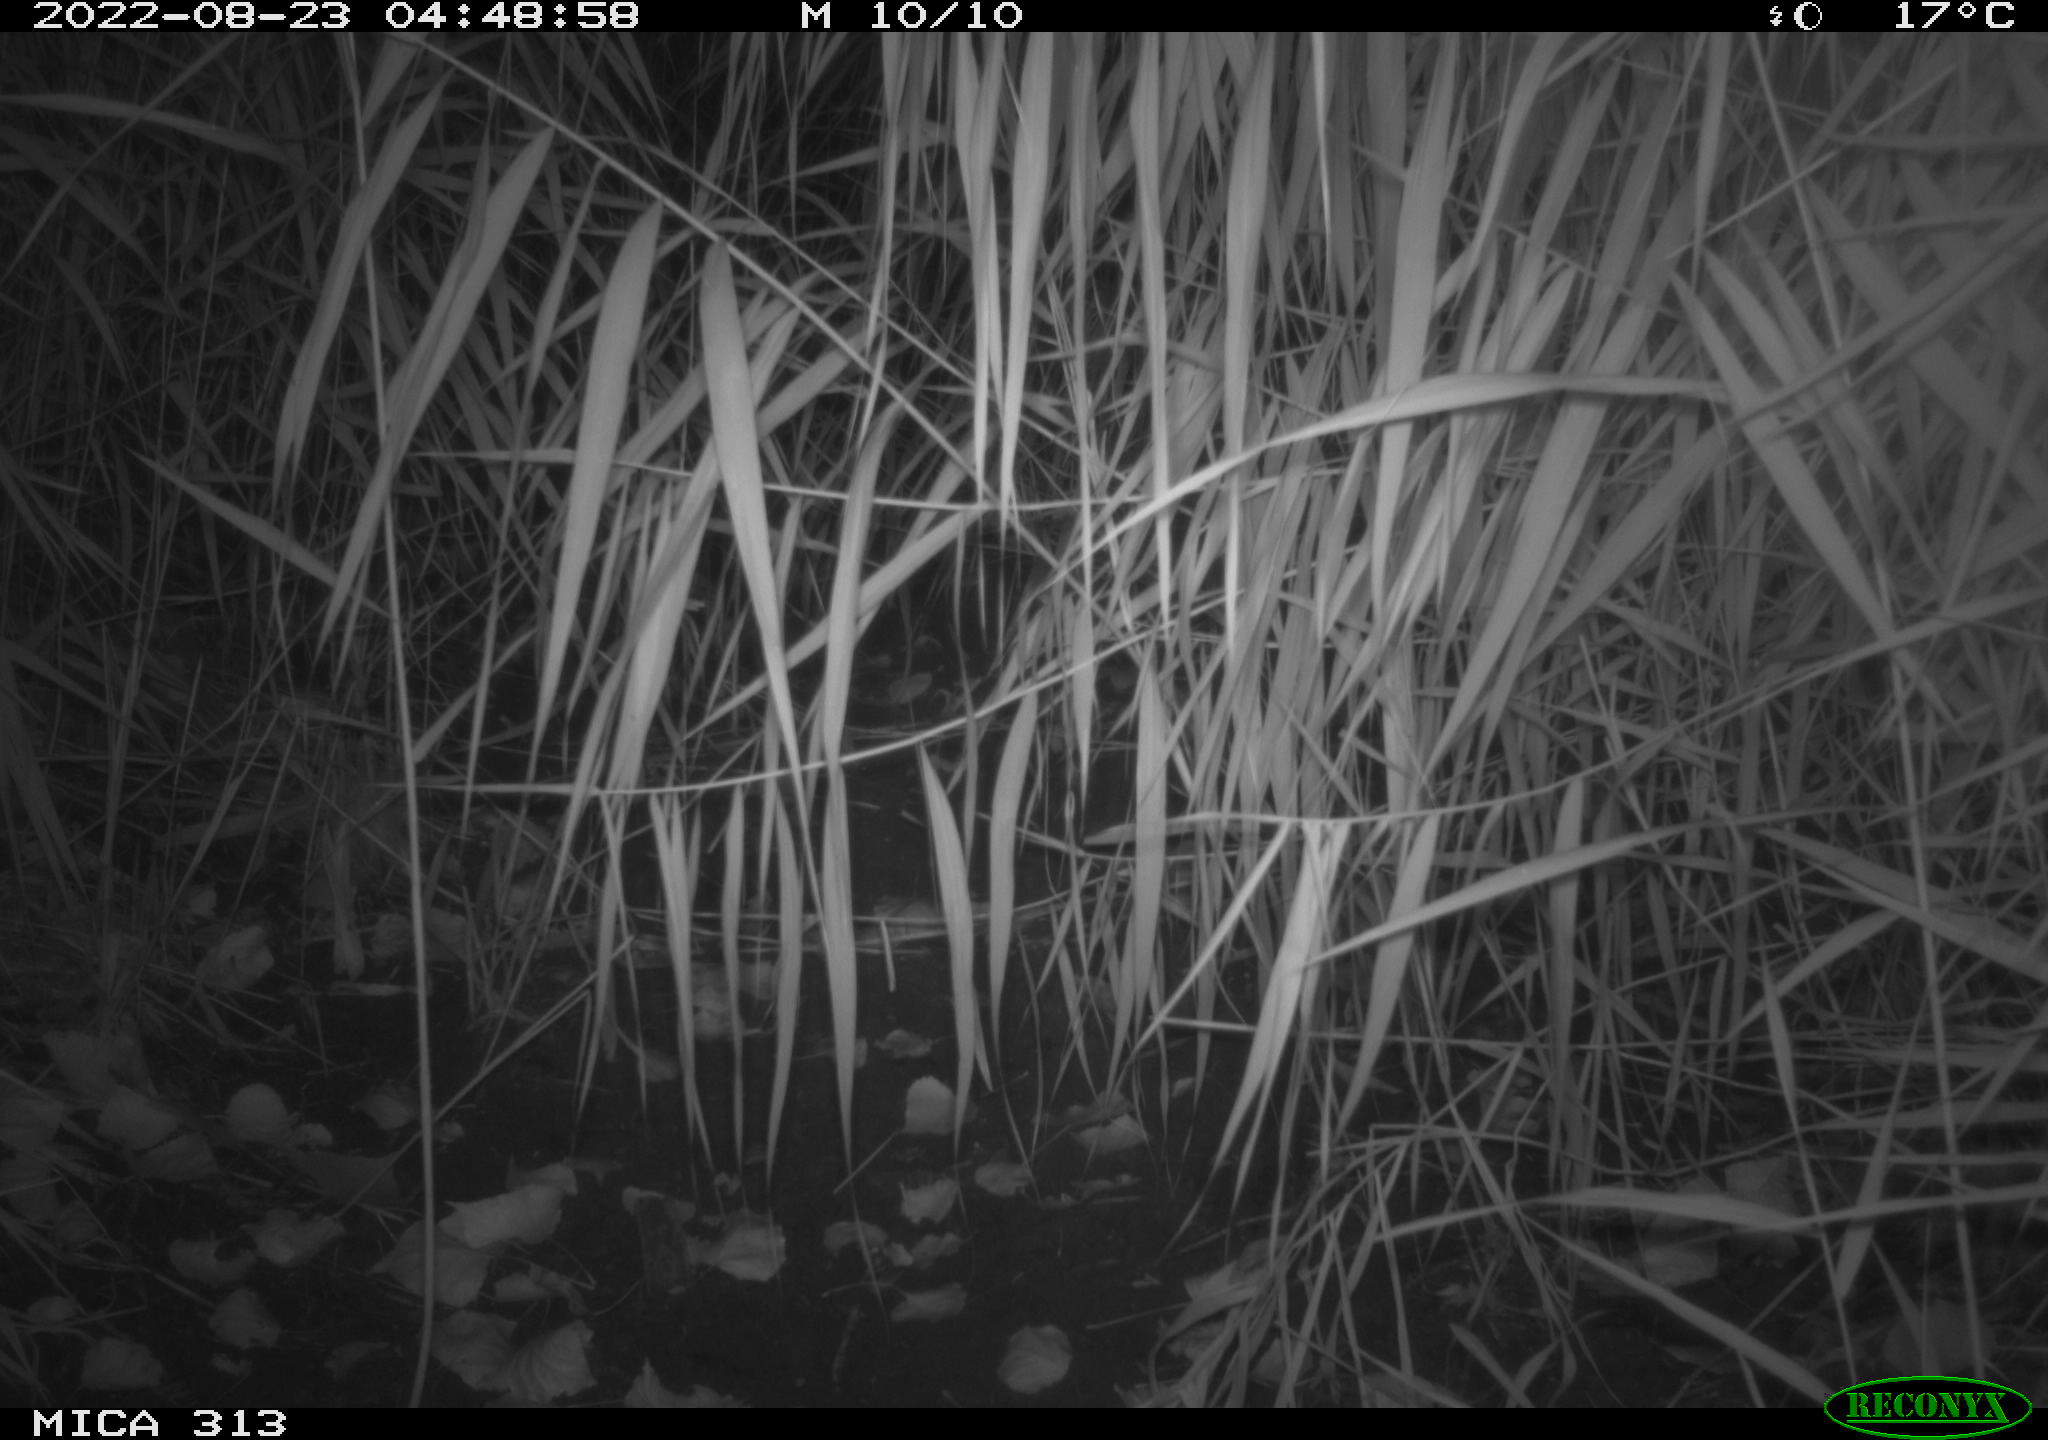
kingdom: Animalia
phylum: Chordata
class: Mammalia
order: Rodentia
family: Muridae
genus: Rattus
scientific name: Rattus norvegicus
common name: Brown rat
